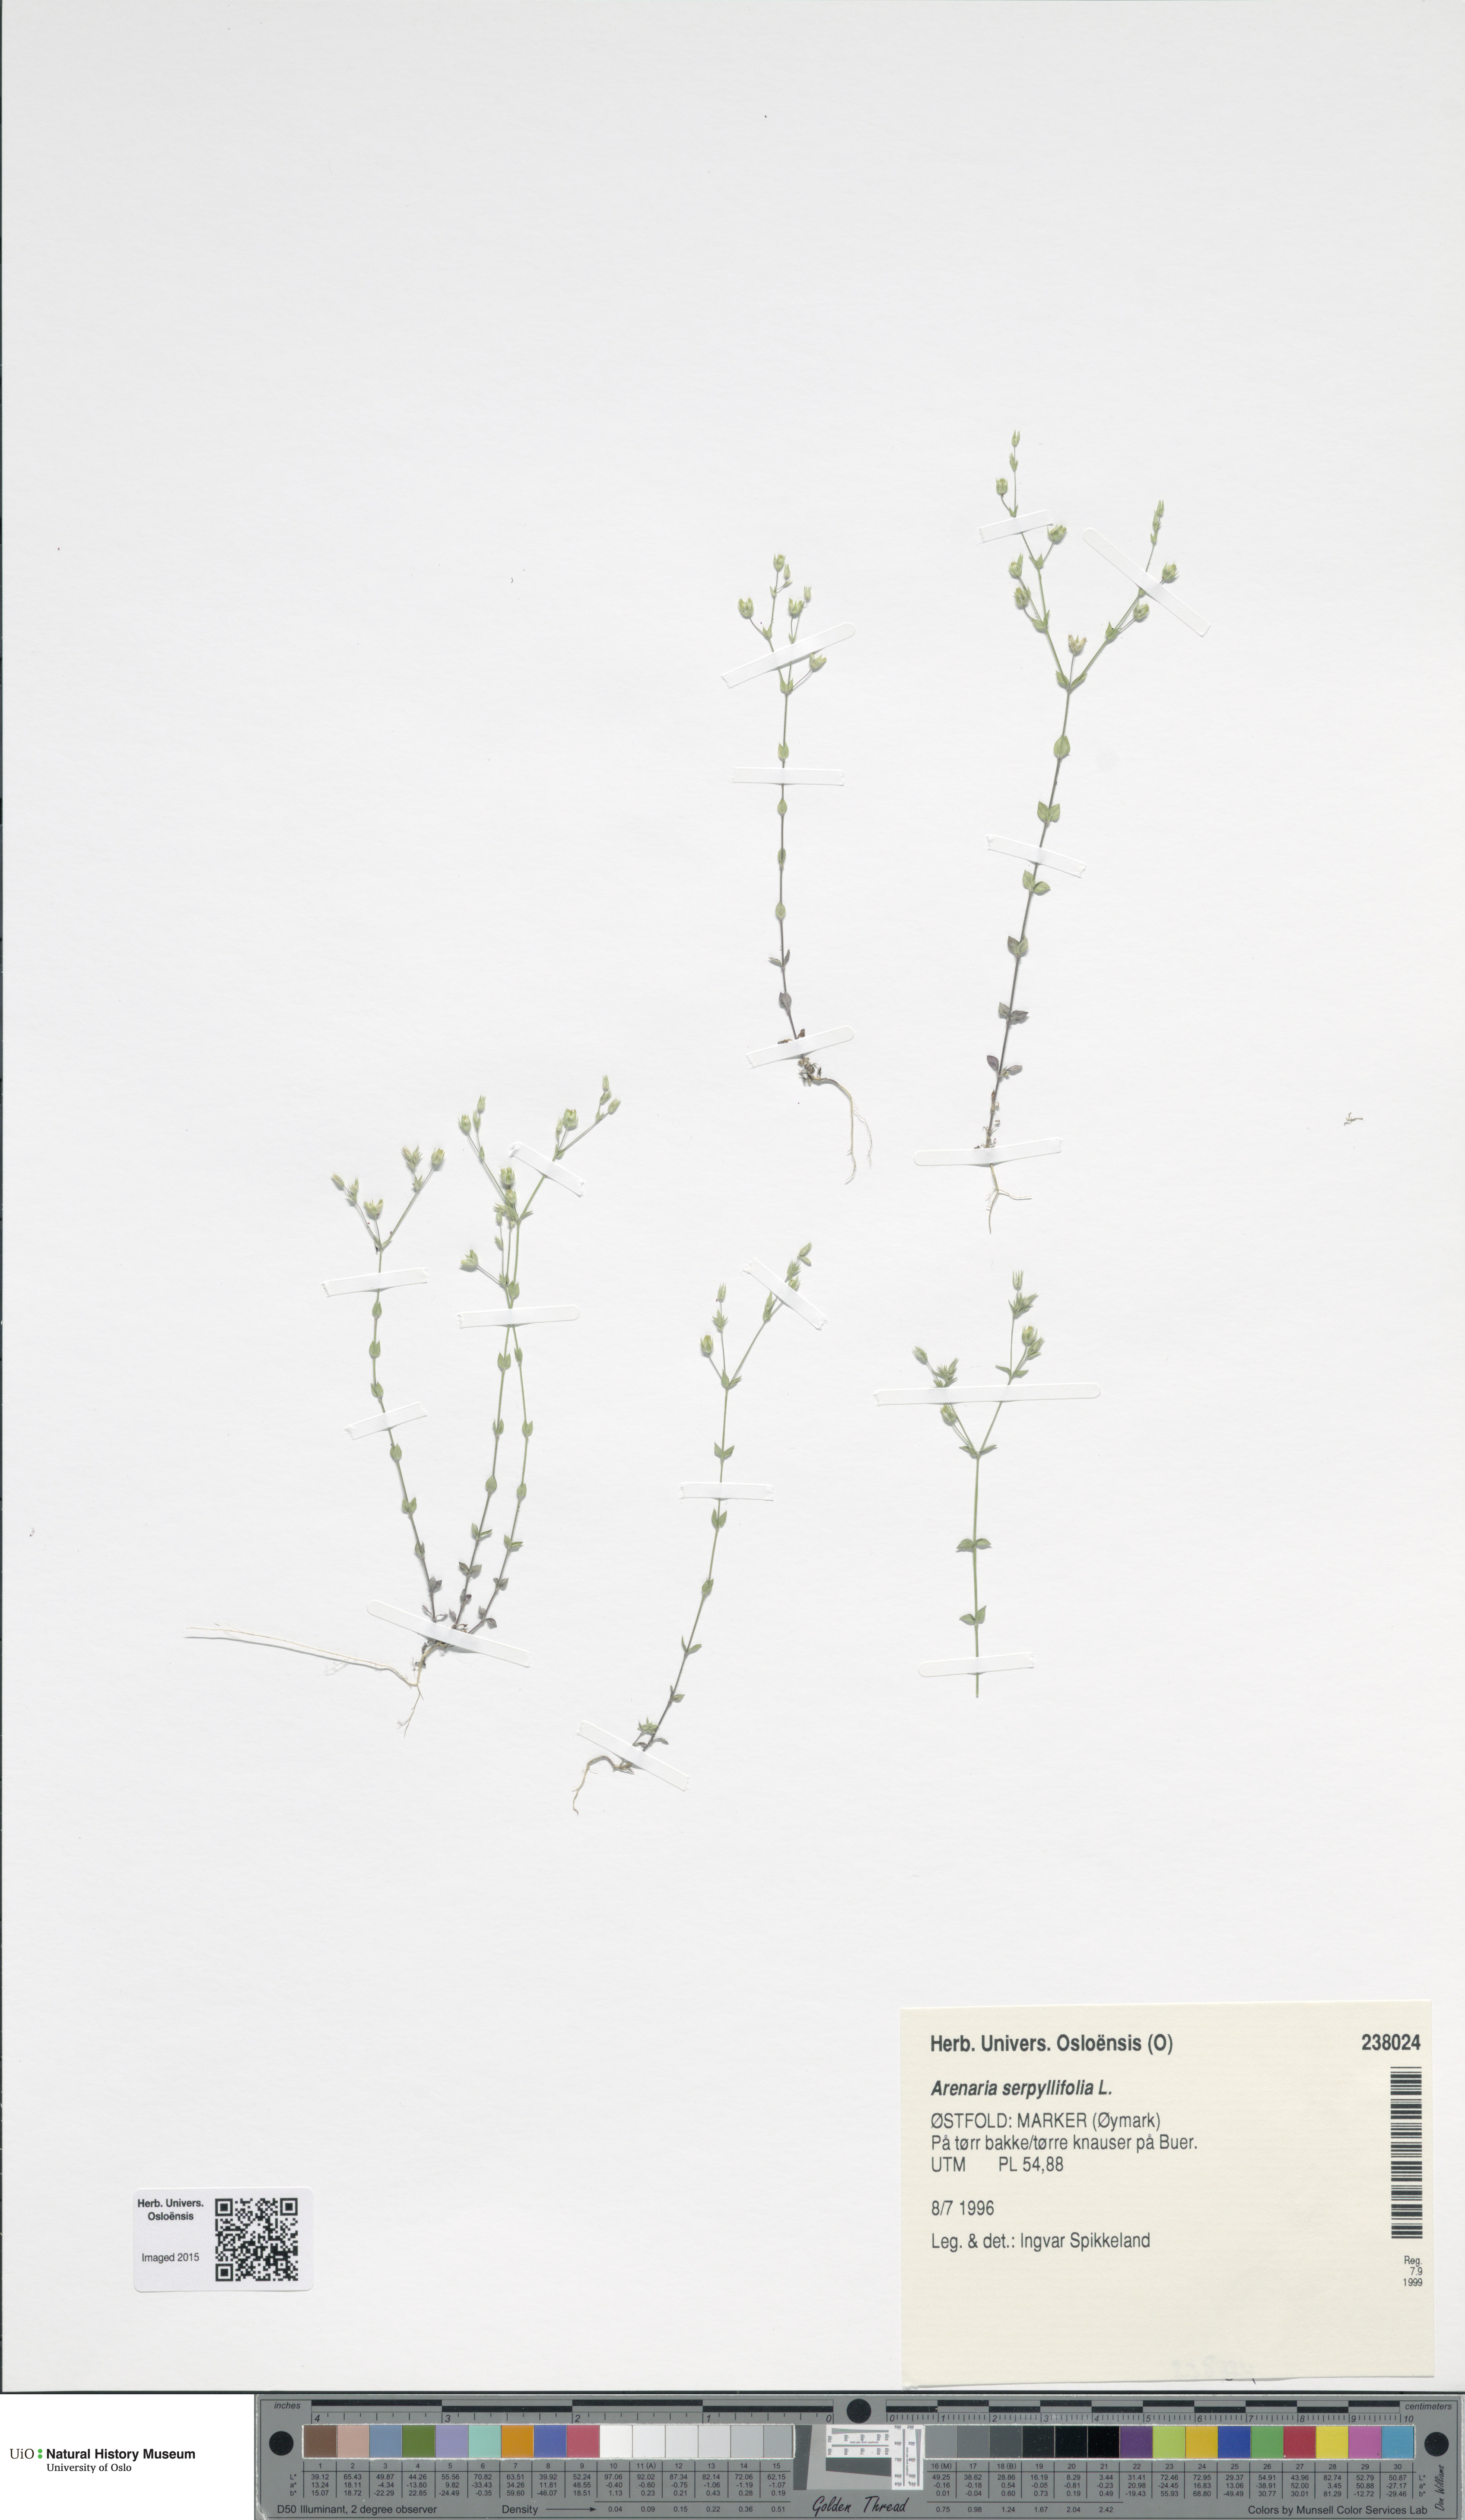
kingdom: Plantae
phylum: Tracheophyta
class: Magnoliopsida
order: Caryophyllales
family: Caryophyllaceae
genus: Arenaria
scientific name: Arenaria serpyllifolia
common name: Thyme-leaved sandwort
